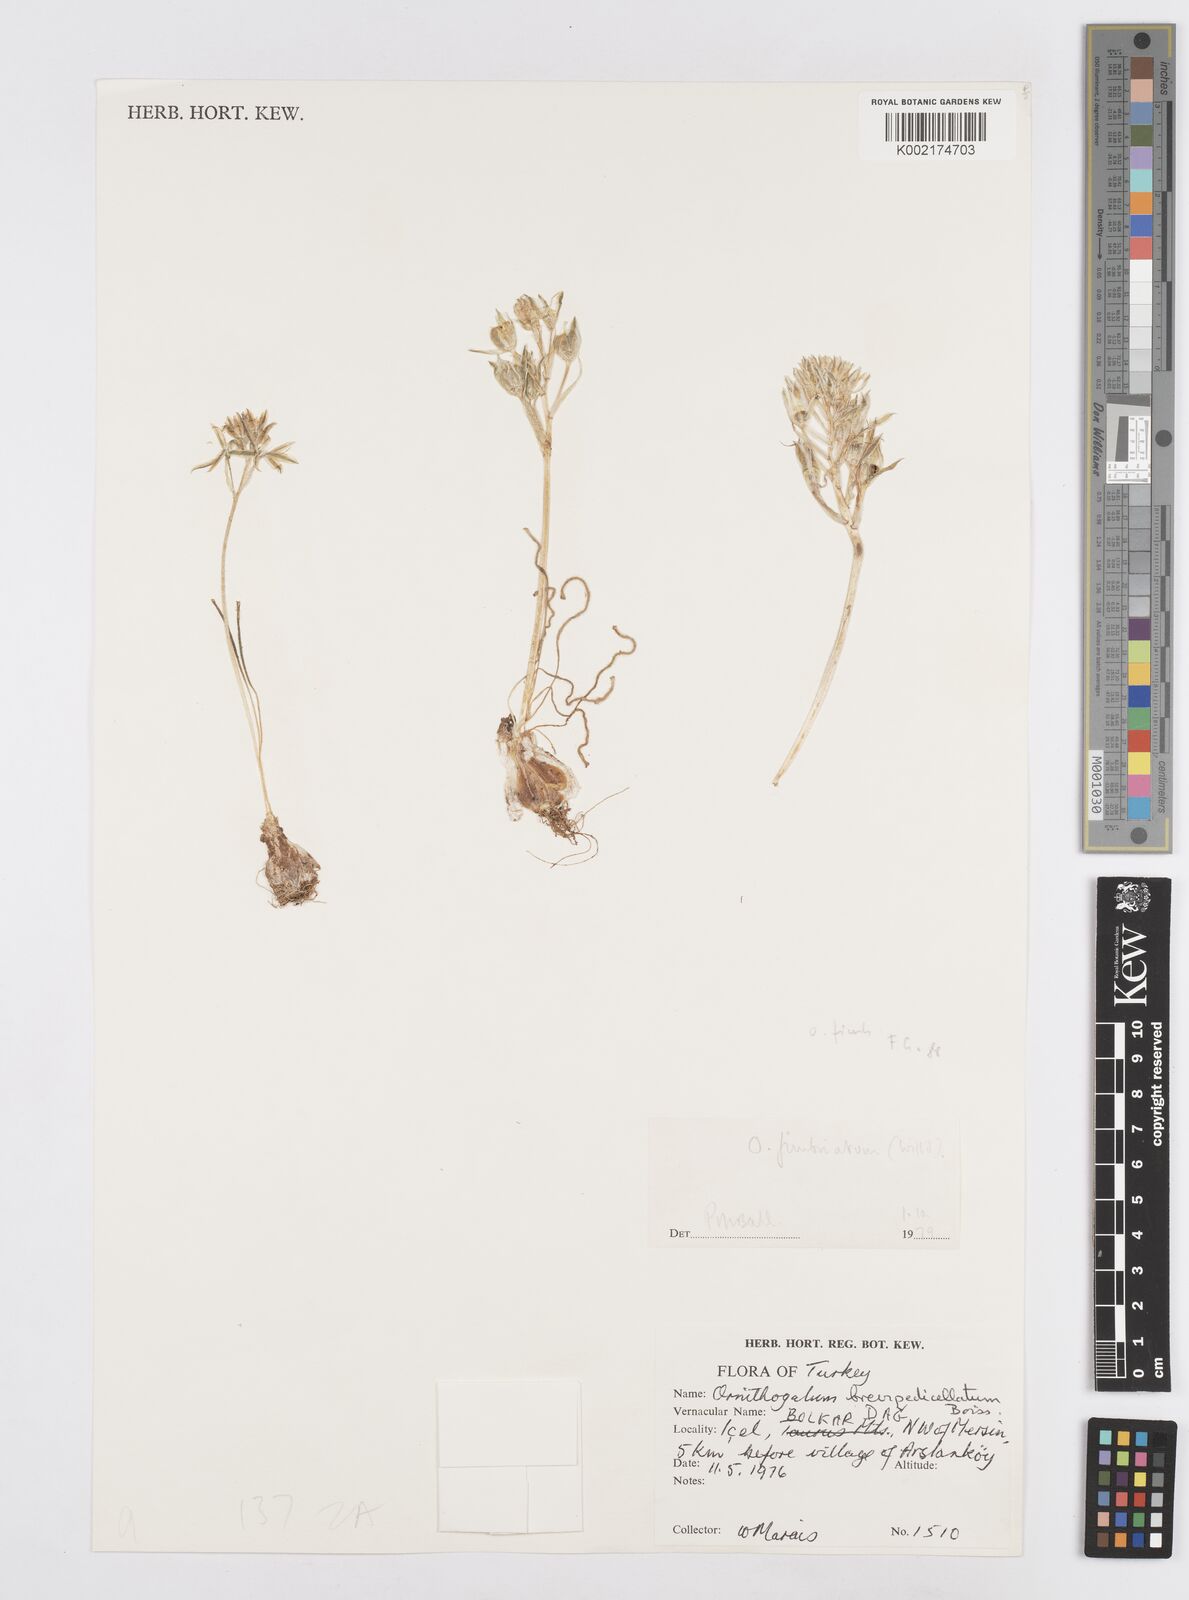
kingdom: Plantae
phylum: Tracheophyta
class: Liliopsida
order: Asparagales
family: Asparagaceae
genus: Ornithogalum
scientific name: Ornithogalum fimbriatum
